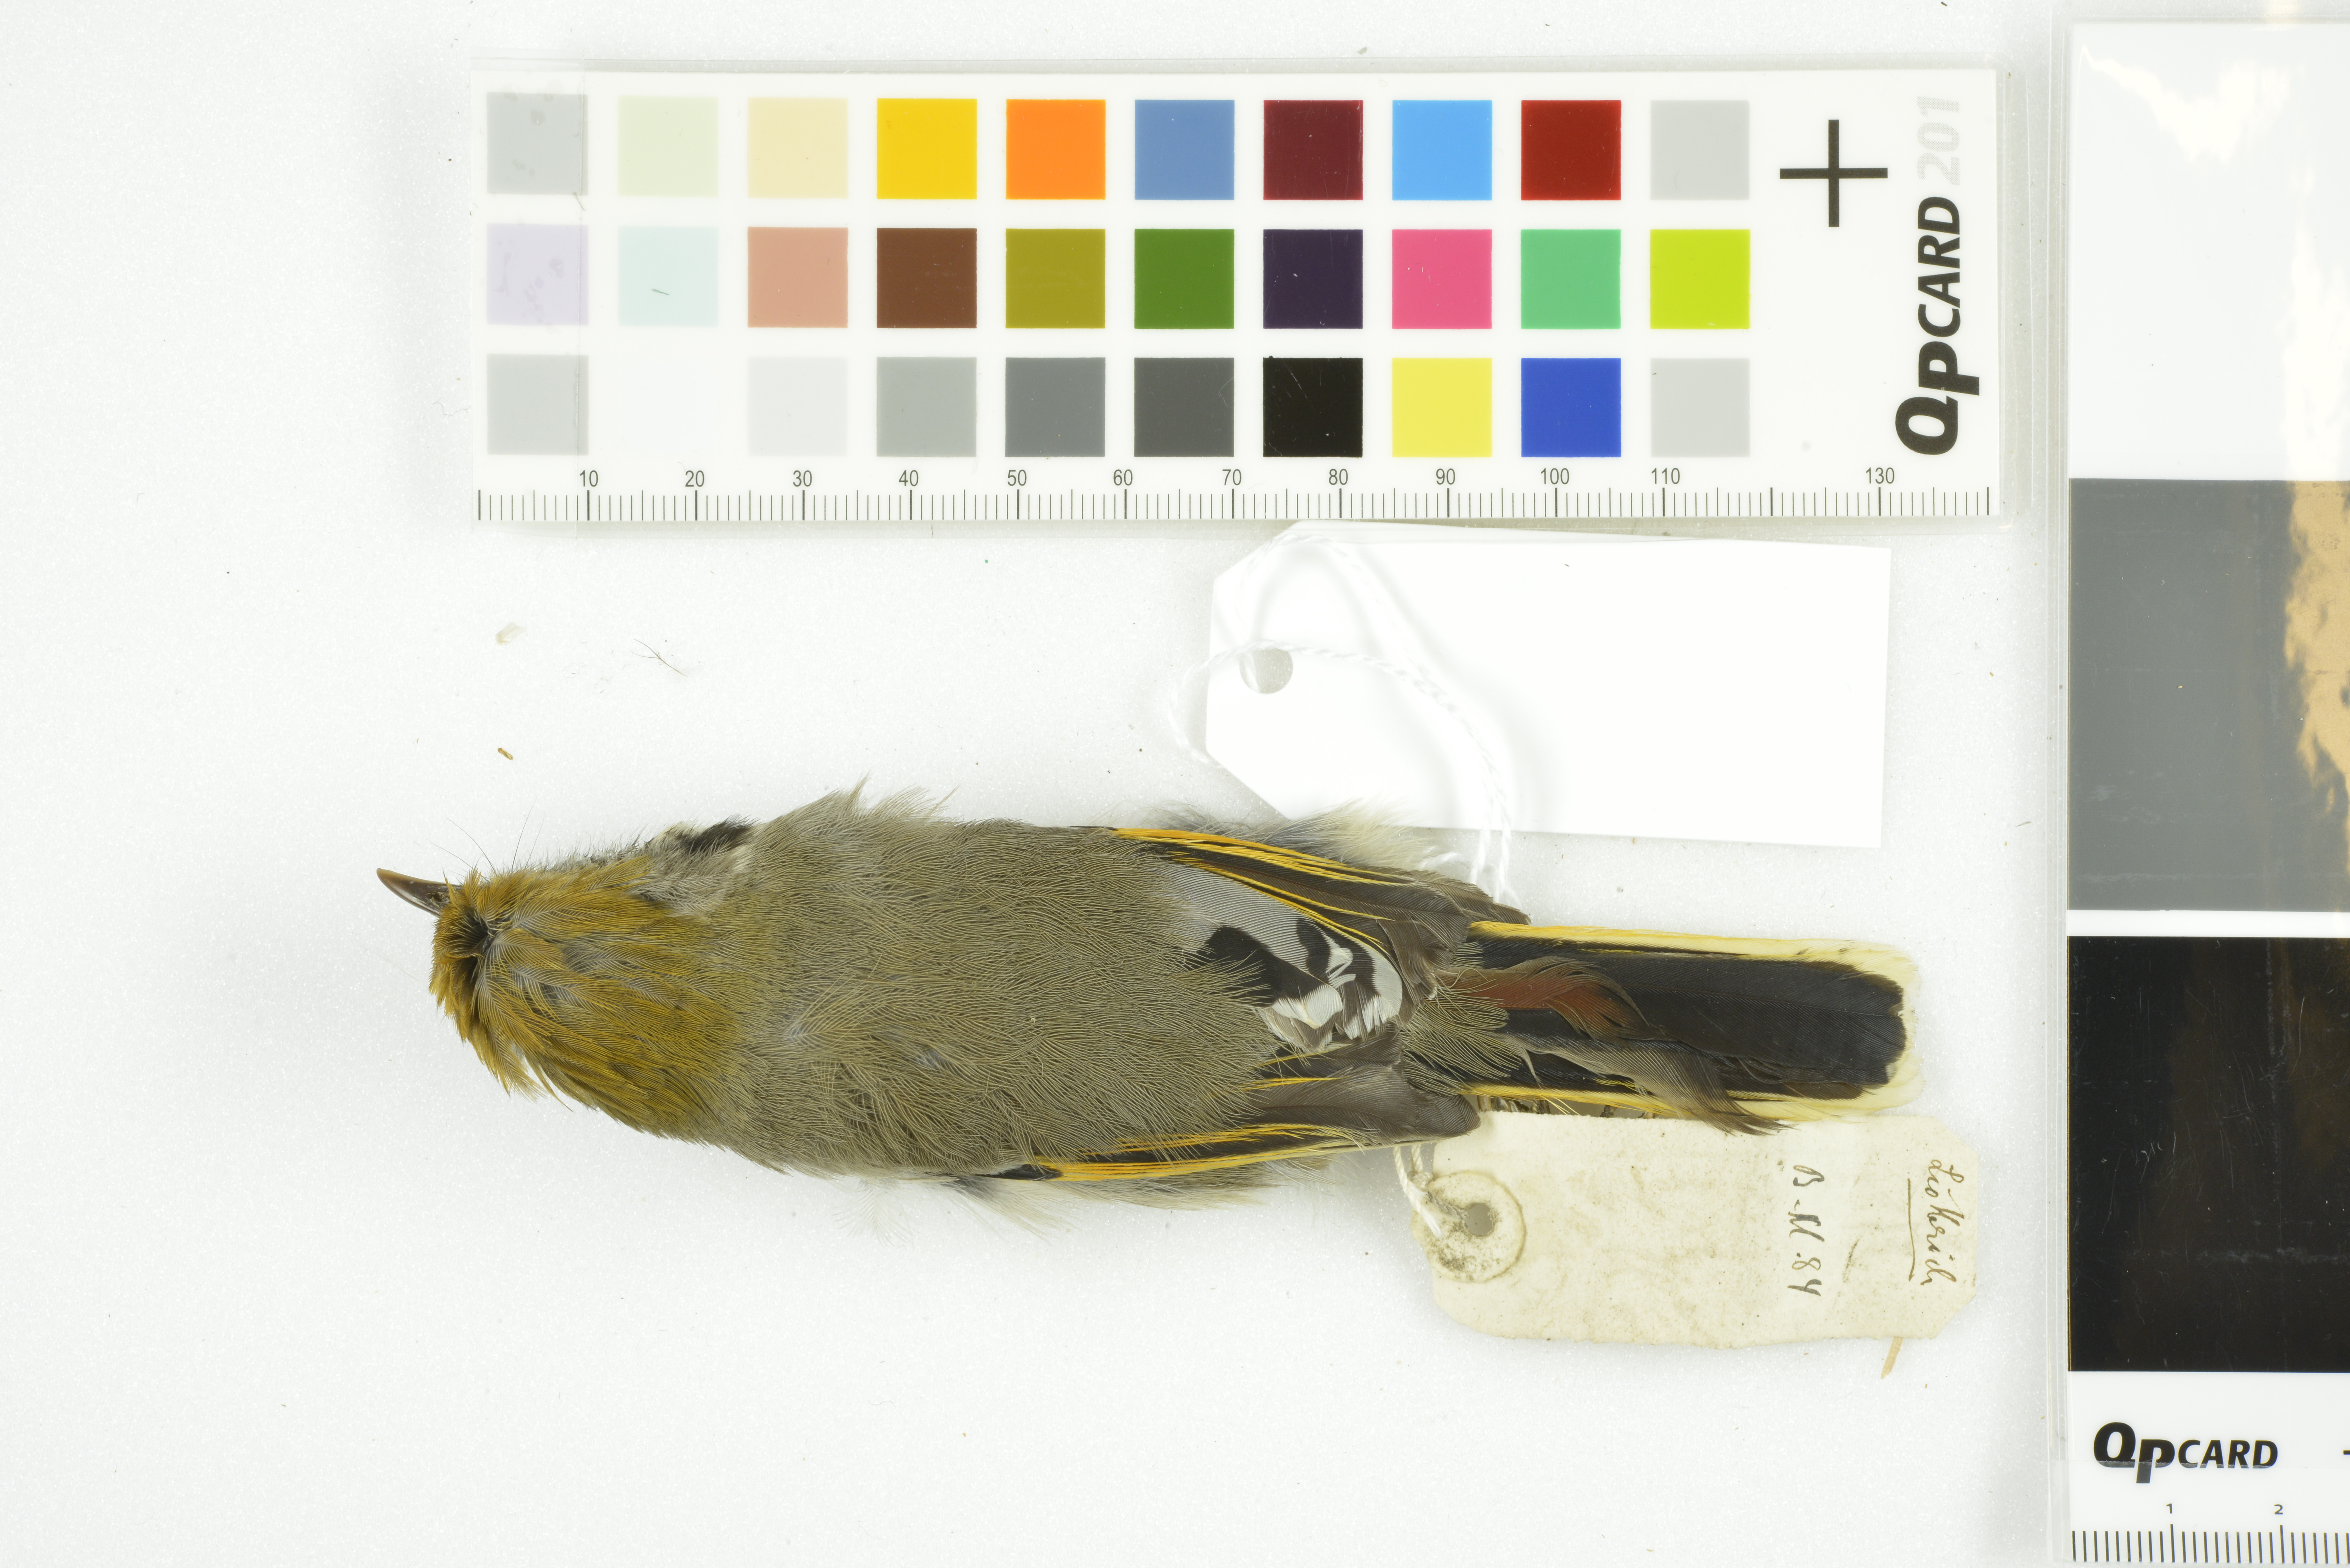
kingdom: Animalia
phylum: Chordata
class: Aves
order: Passeriformes
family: Leiothrichidae
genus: Minla
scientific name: Minla strigula
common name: Chestnut-tailed minla
